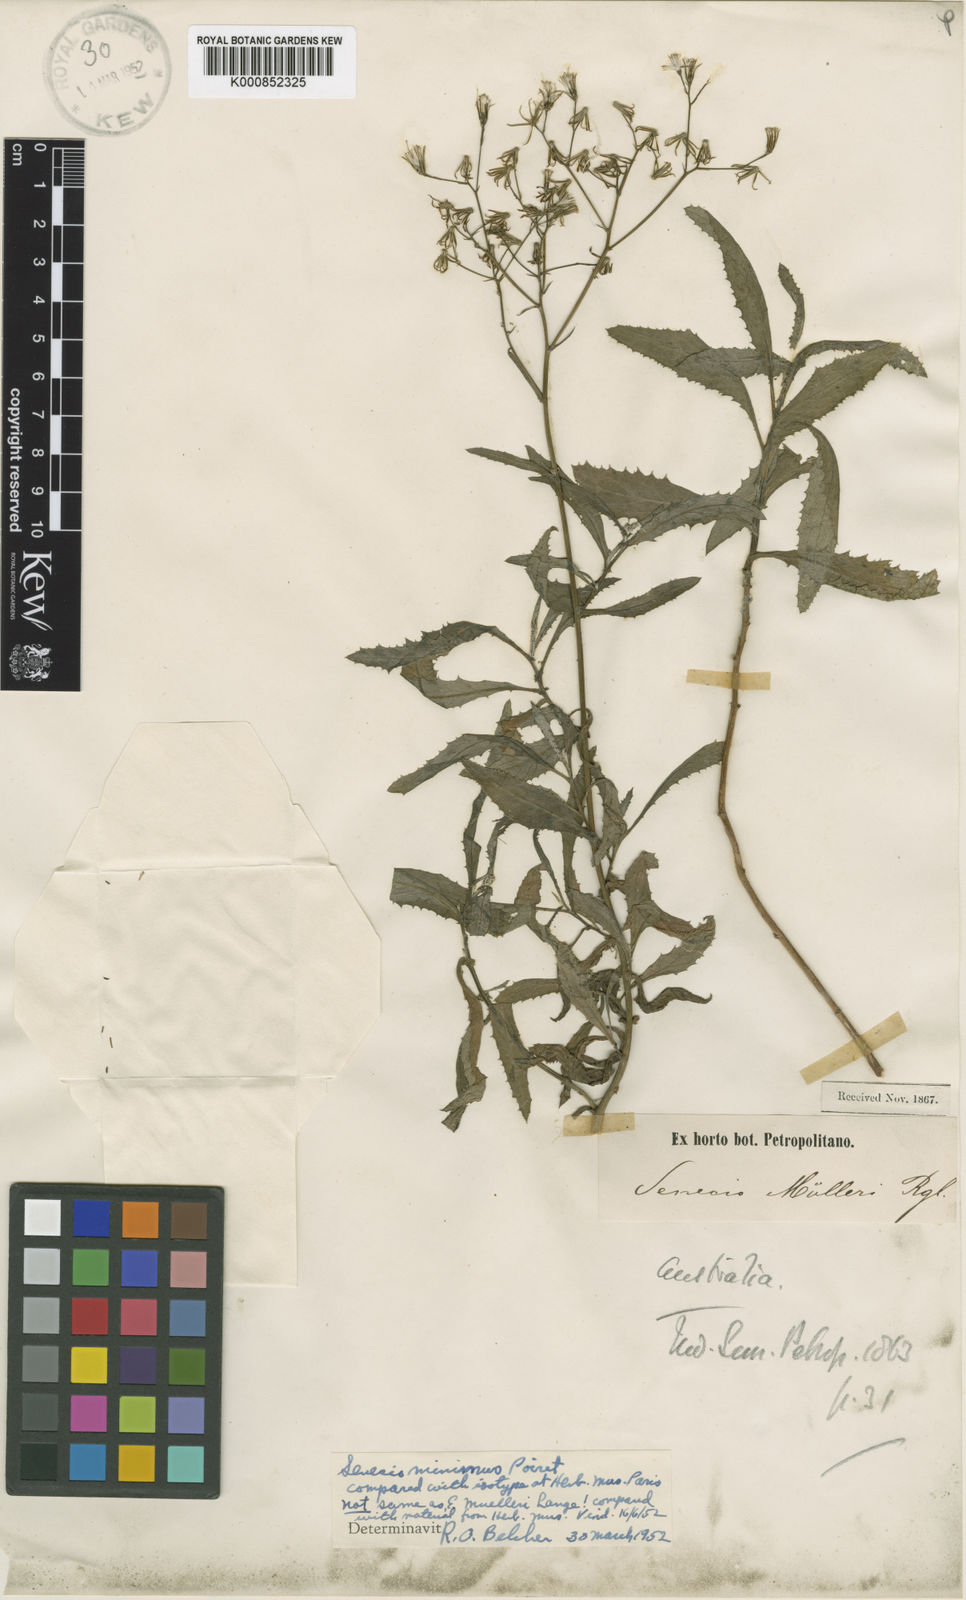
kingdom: Plantae
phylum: Tracheophyta
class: Magnoliopsida
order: Asterales
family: Asteraceae
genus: Senecio
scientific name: Senecio minimus
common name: Toothed fireweed
